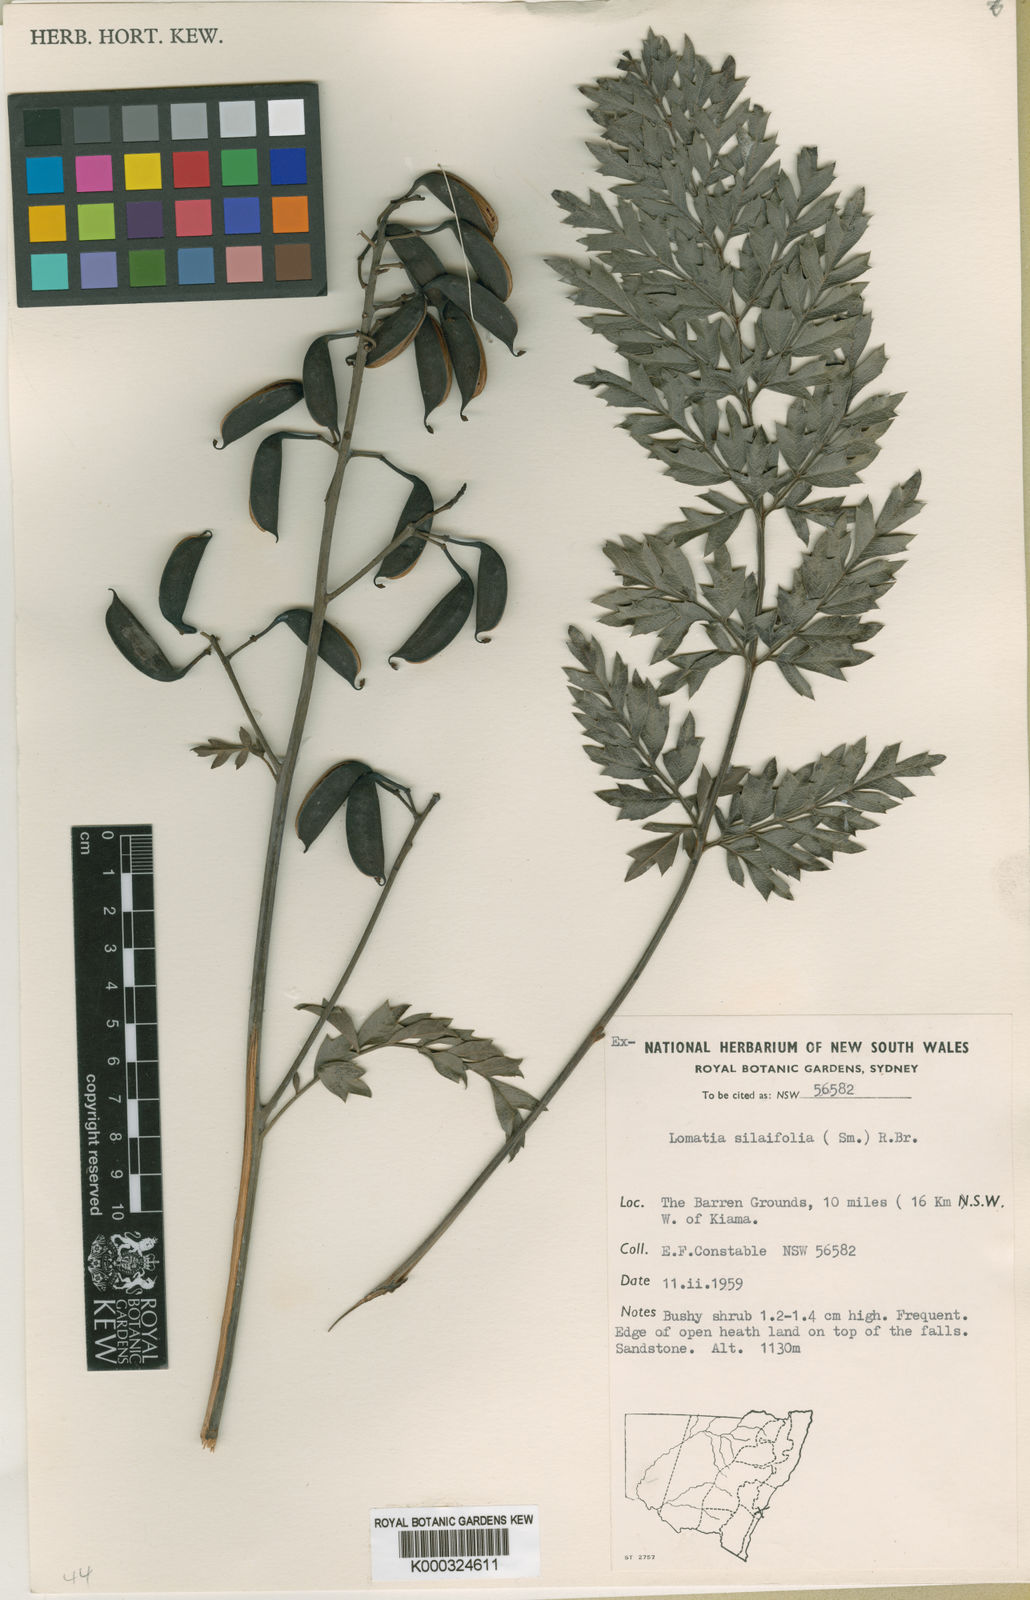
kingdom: Plantae
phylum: Tracheophyta
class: Magnoliopsida
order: Proteales
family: Proteaceae
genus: Lomatia
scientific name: Lomatia silaifolia
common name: Crinklebush
